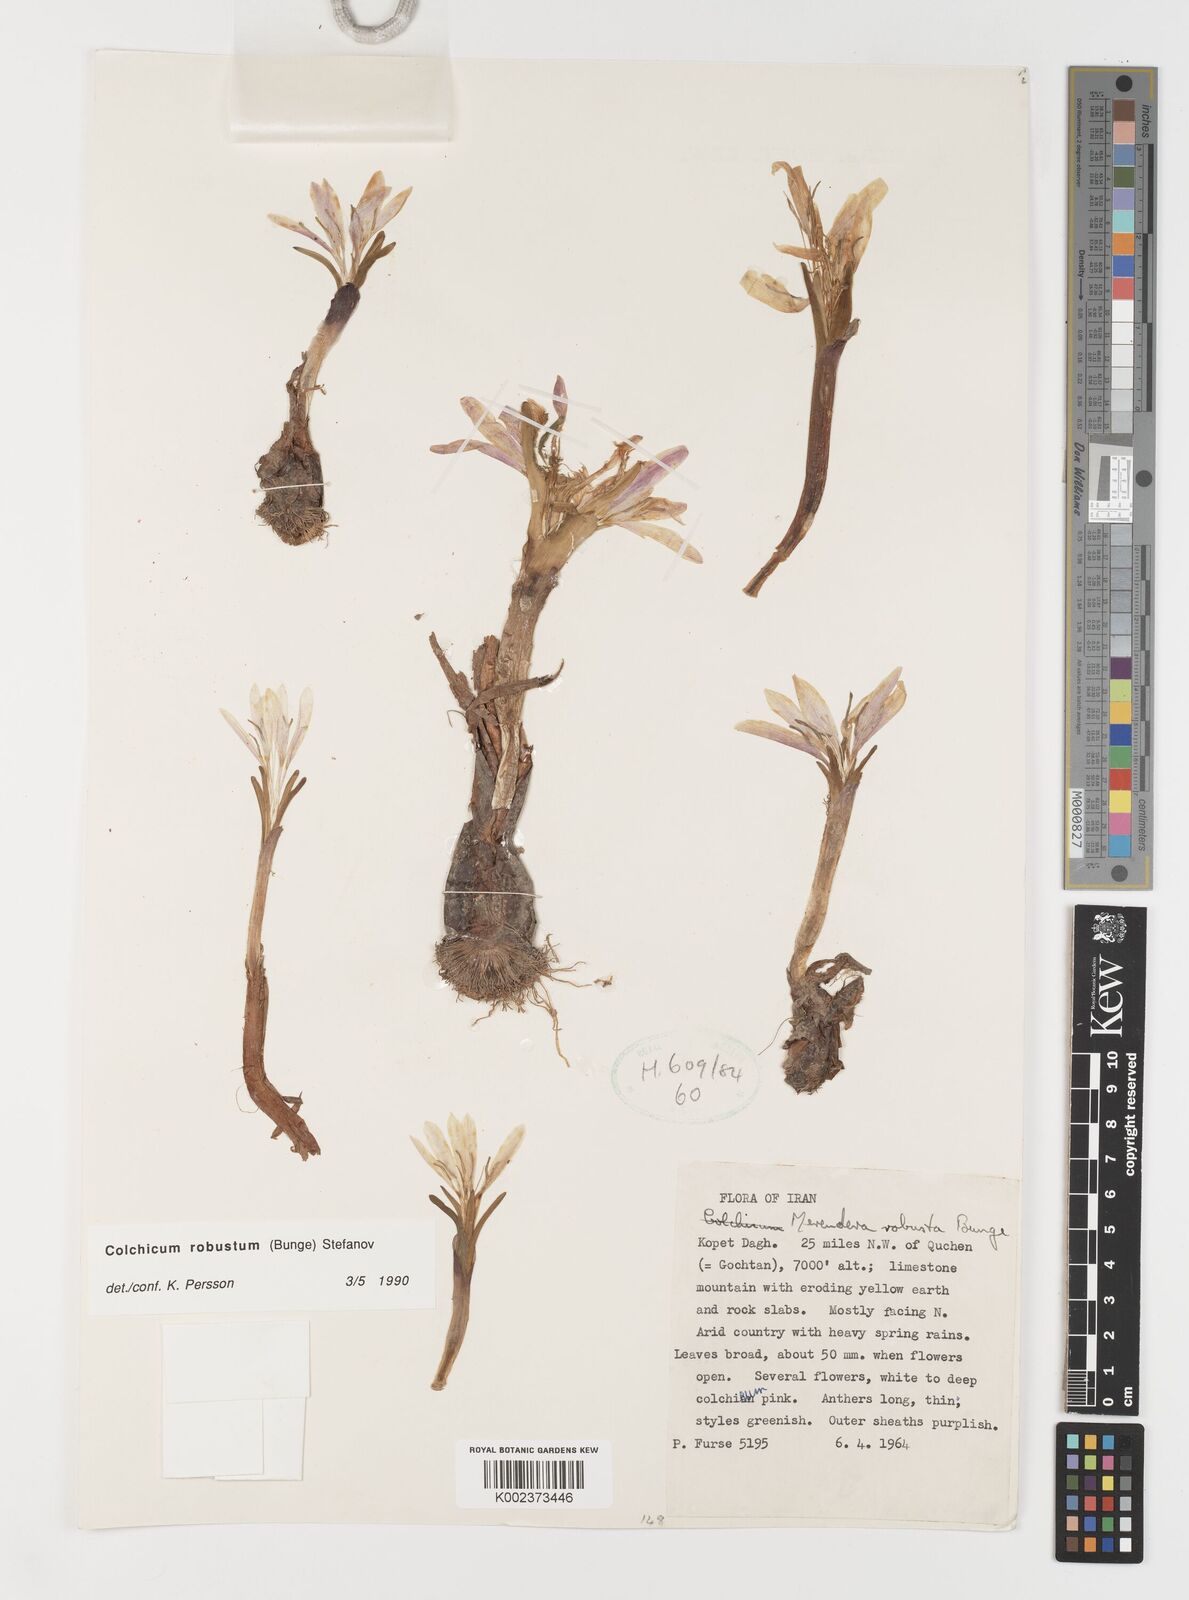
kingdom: Plantae
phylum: Tracheophyta
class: Liliopsida
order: Liliales
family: Colchicaceae
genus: Colchicum
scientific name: Colchicum robustum
